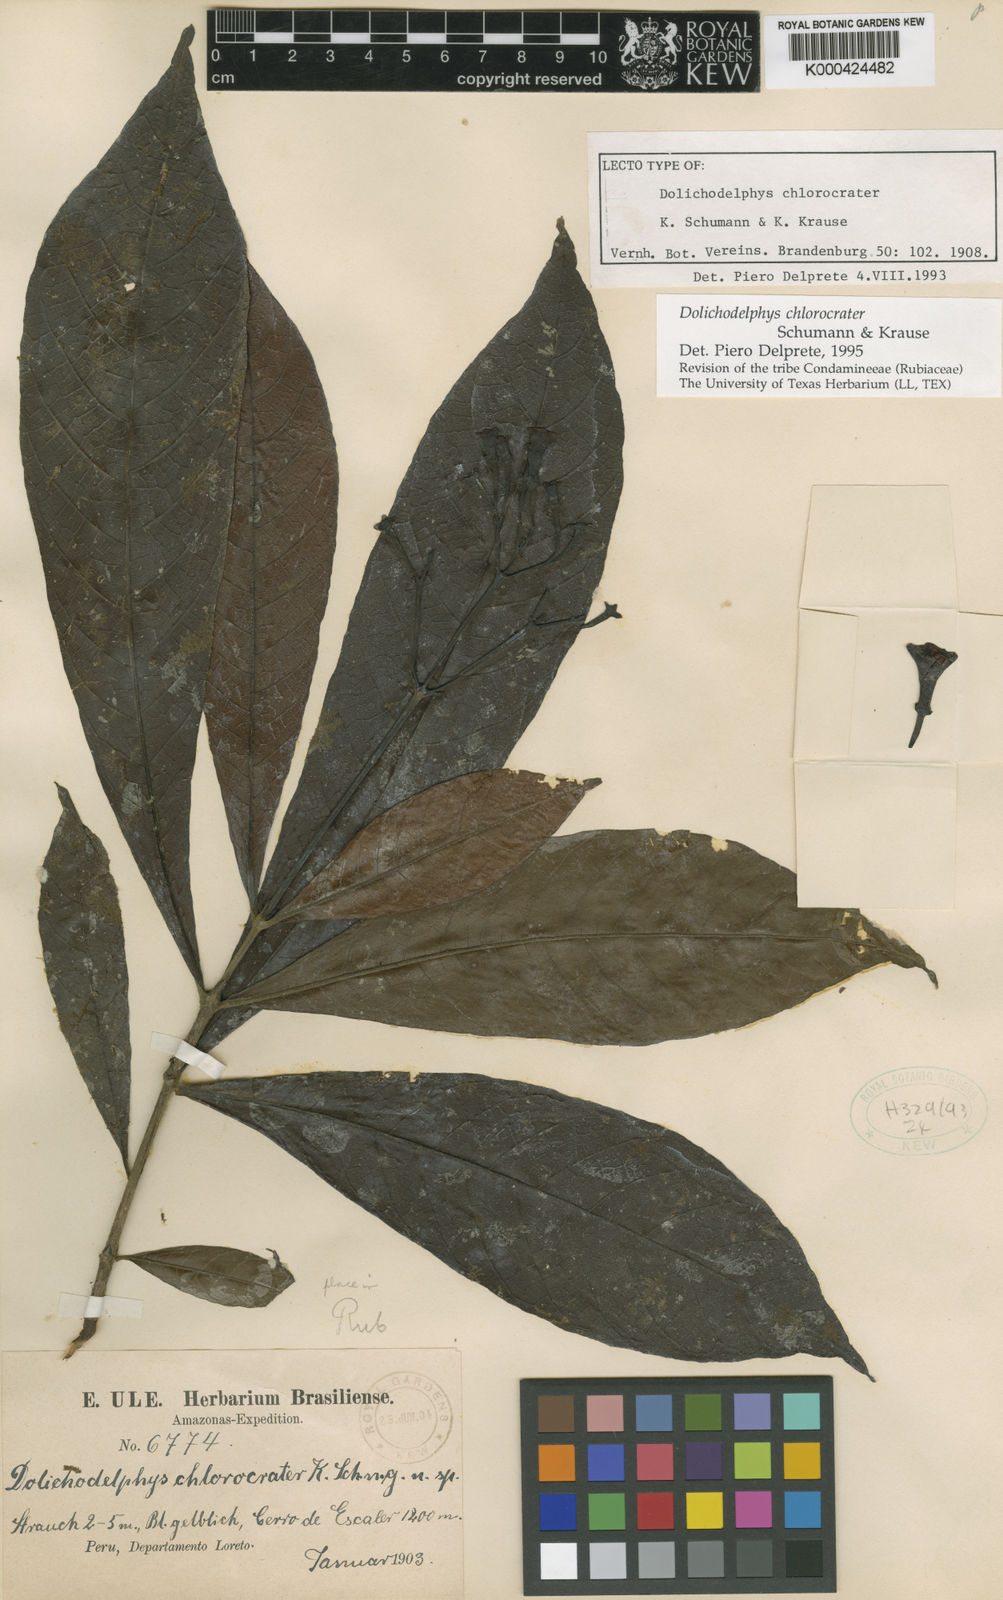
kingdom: Plantae
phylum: Tracheophyta
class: Magnoliopsida
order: Gentianales
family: Rubiaceae
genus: Dolichodelphys
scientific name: Dolichodelphys chlorocrater
